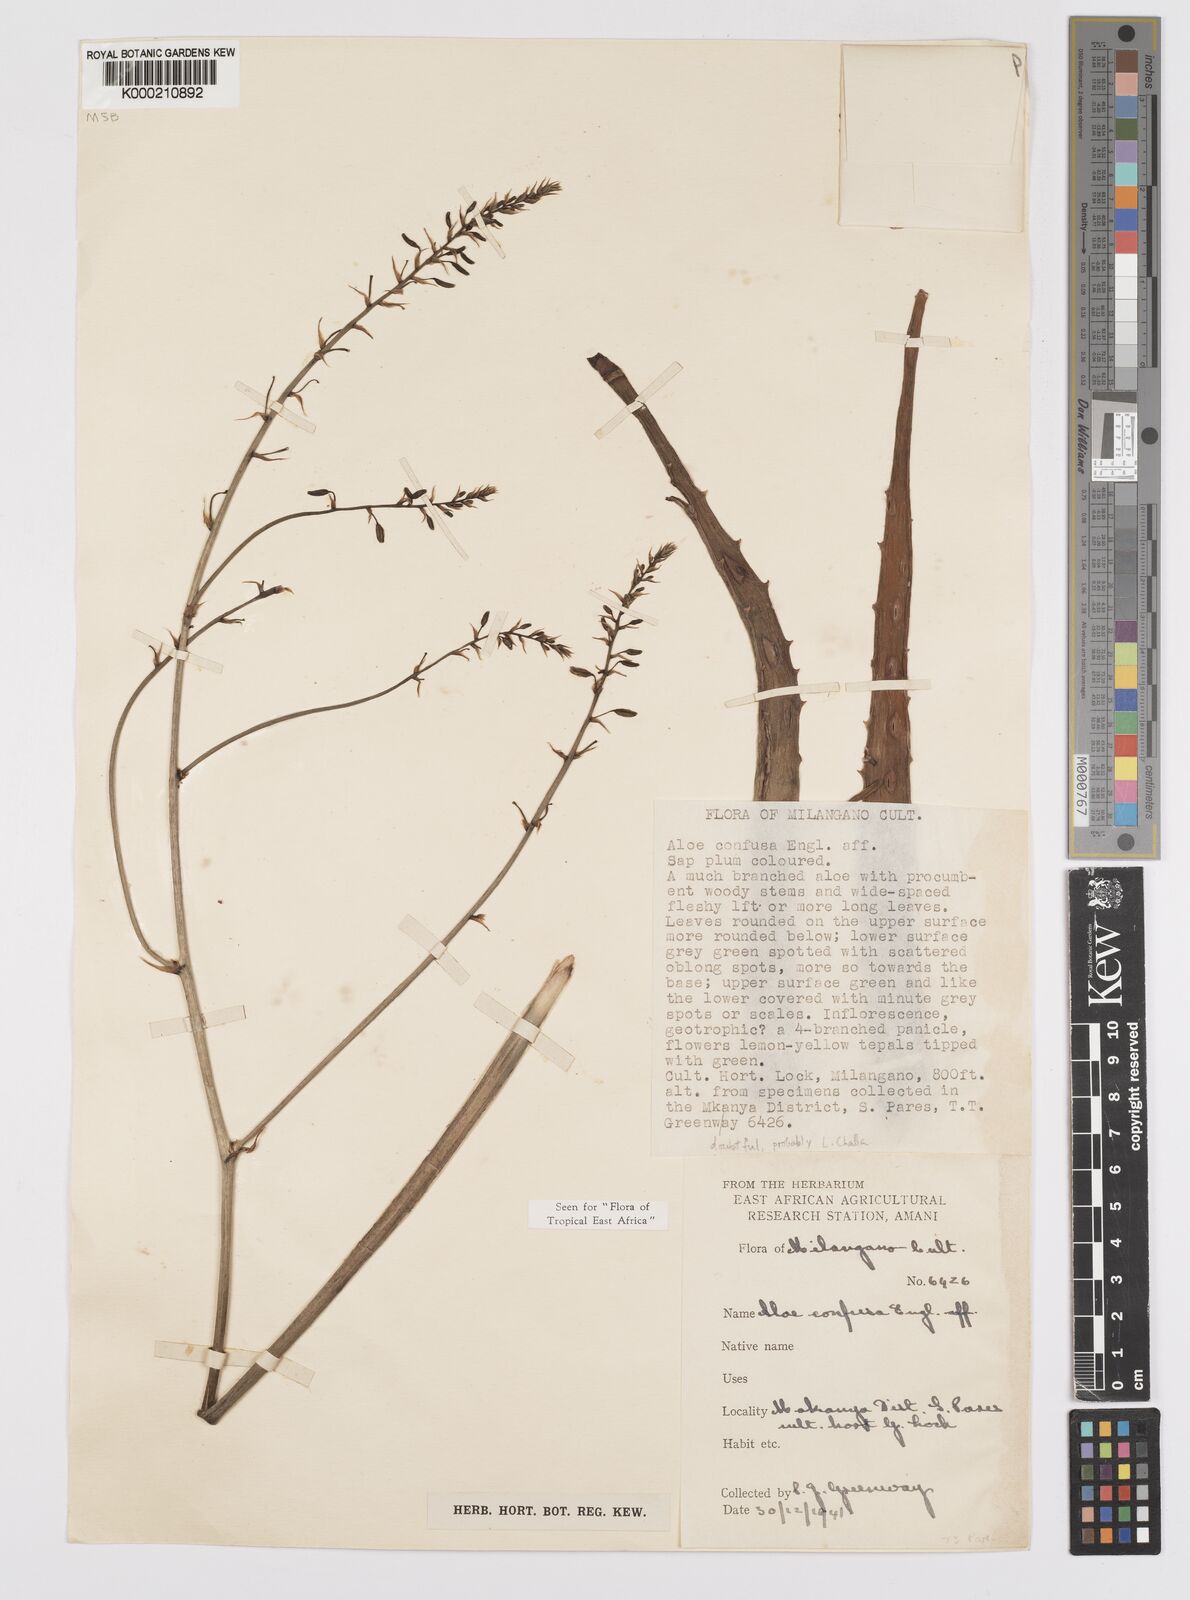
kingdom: Plantae
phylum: Tracheophyta
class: Liliopsida
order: Asparagales
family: Asphodelaceae
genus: Aloe
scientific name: Aloe confusa
